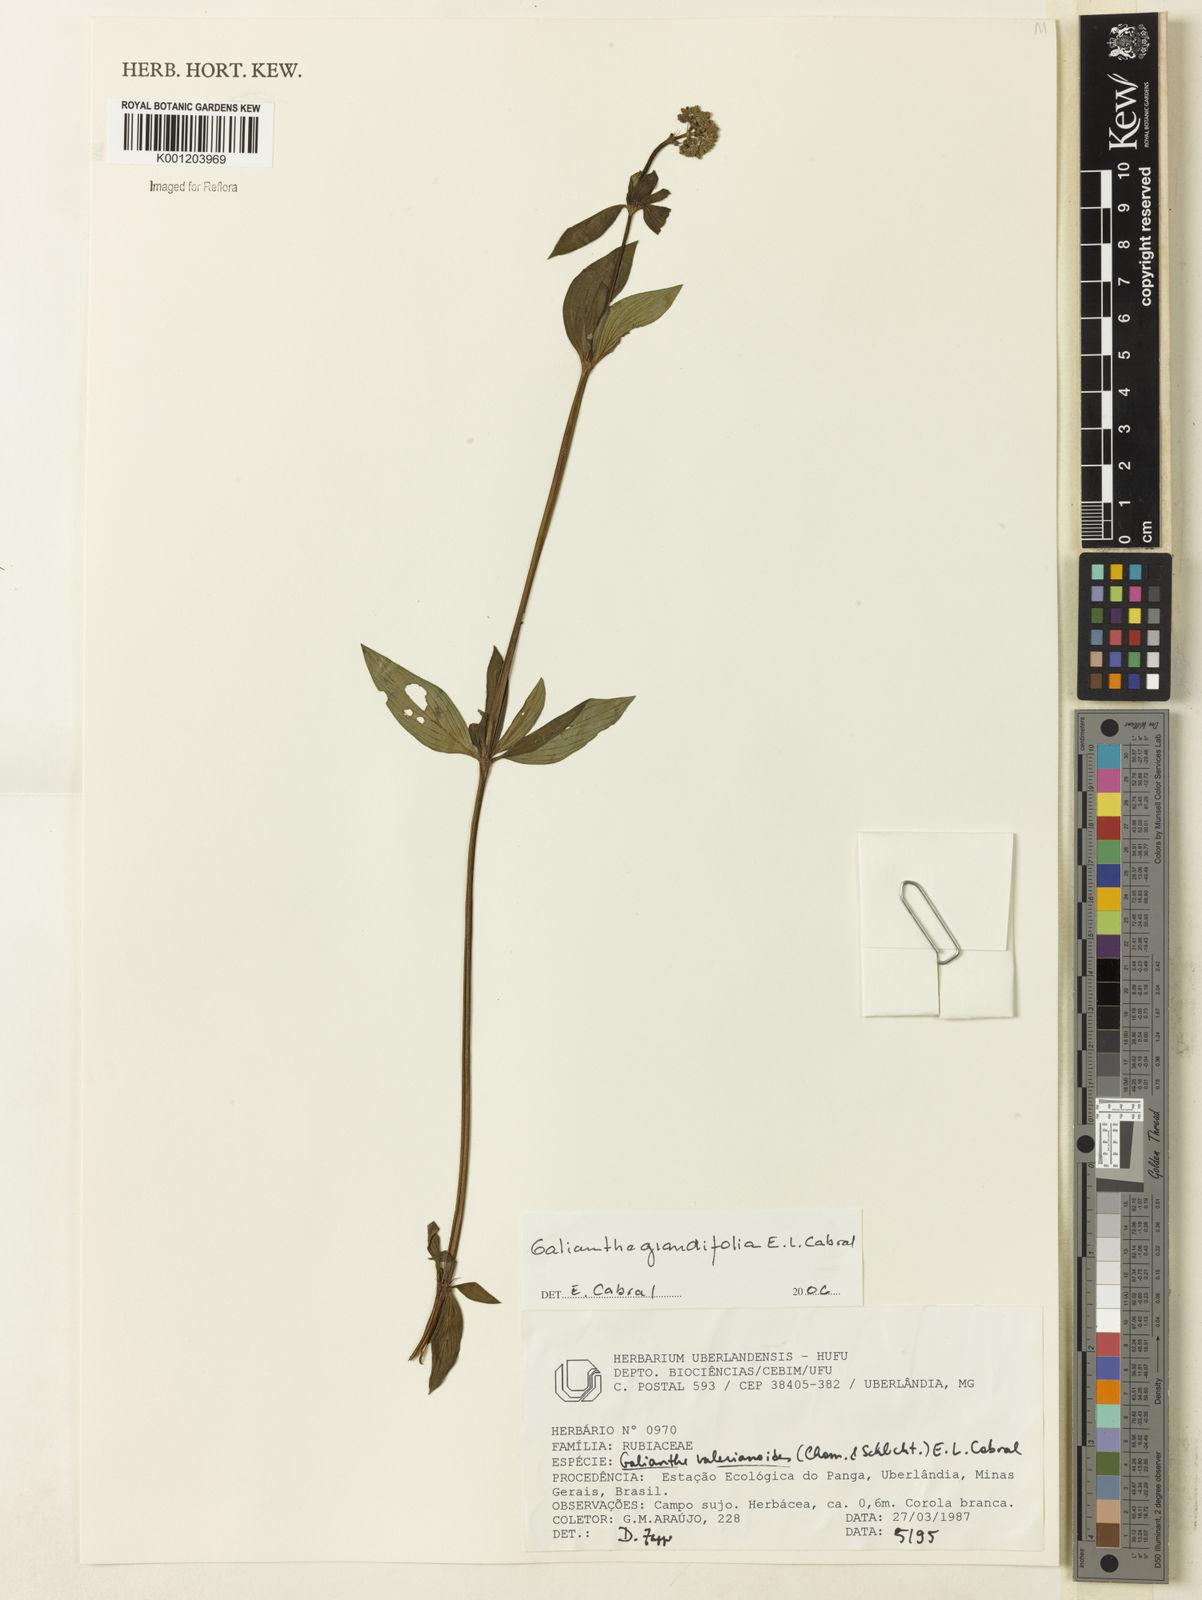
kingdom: Plantae
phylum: Tracheophyta
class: Magnoliopsida
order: Gentianales
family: Rubiaceae
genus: Galianthe
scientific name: Galianthe grandifolia
